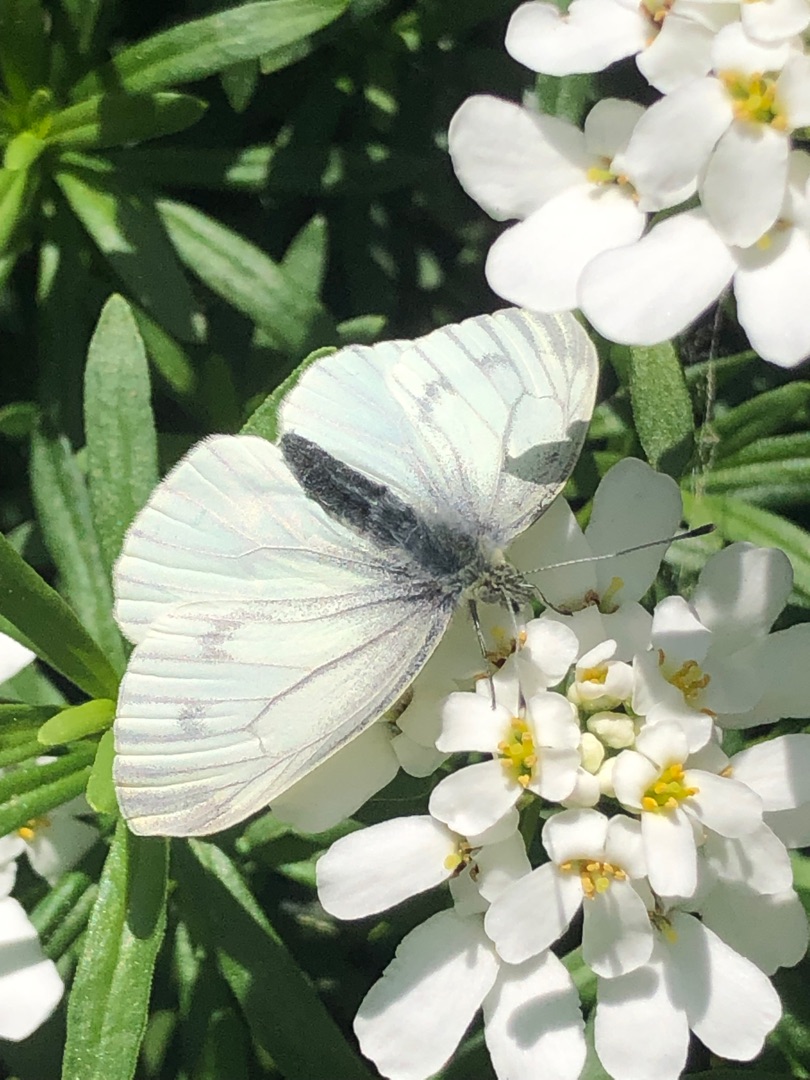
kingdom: Animalia
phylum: Arthropoda
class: Insecta
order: Lepidoptera
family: Pieridae
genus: Pieris
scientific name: Pieris napi
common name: Grønåret kålsommerfugl
